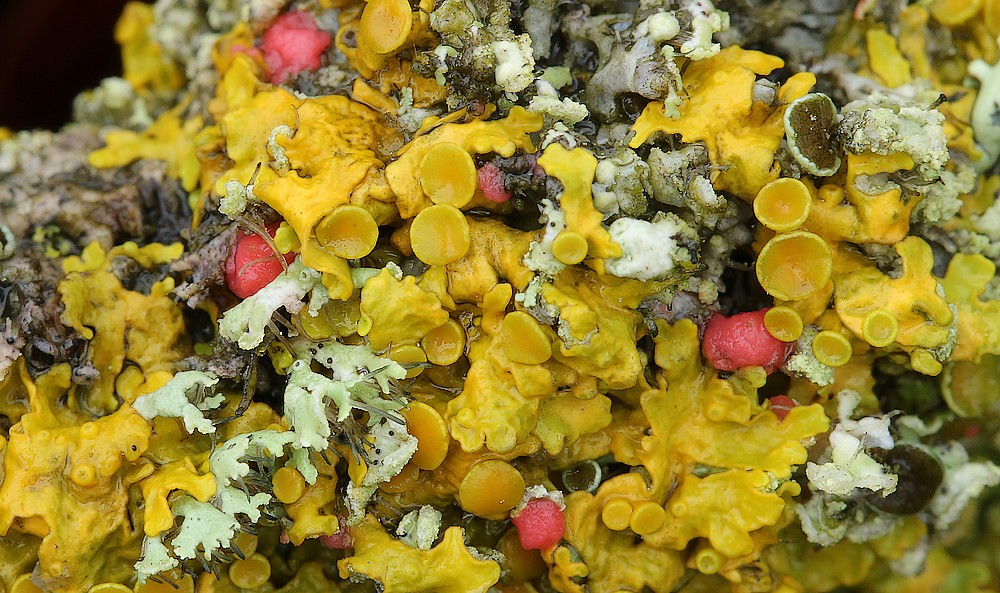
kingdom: Fungi
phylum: Ascomycota
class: Sordariomycetes
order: Hypocreales
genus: Illosporiopsis
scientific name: Illosporiopsis christiansenii
